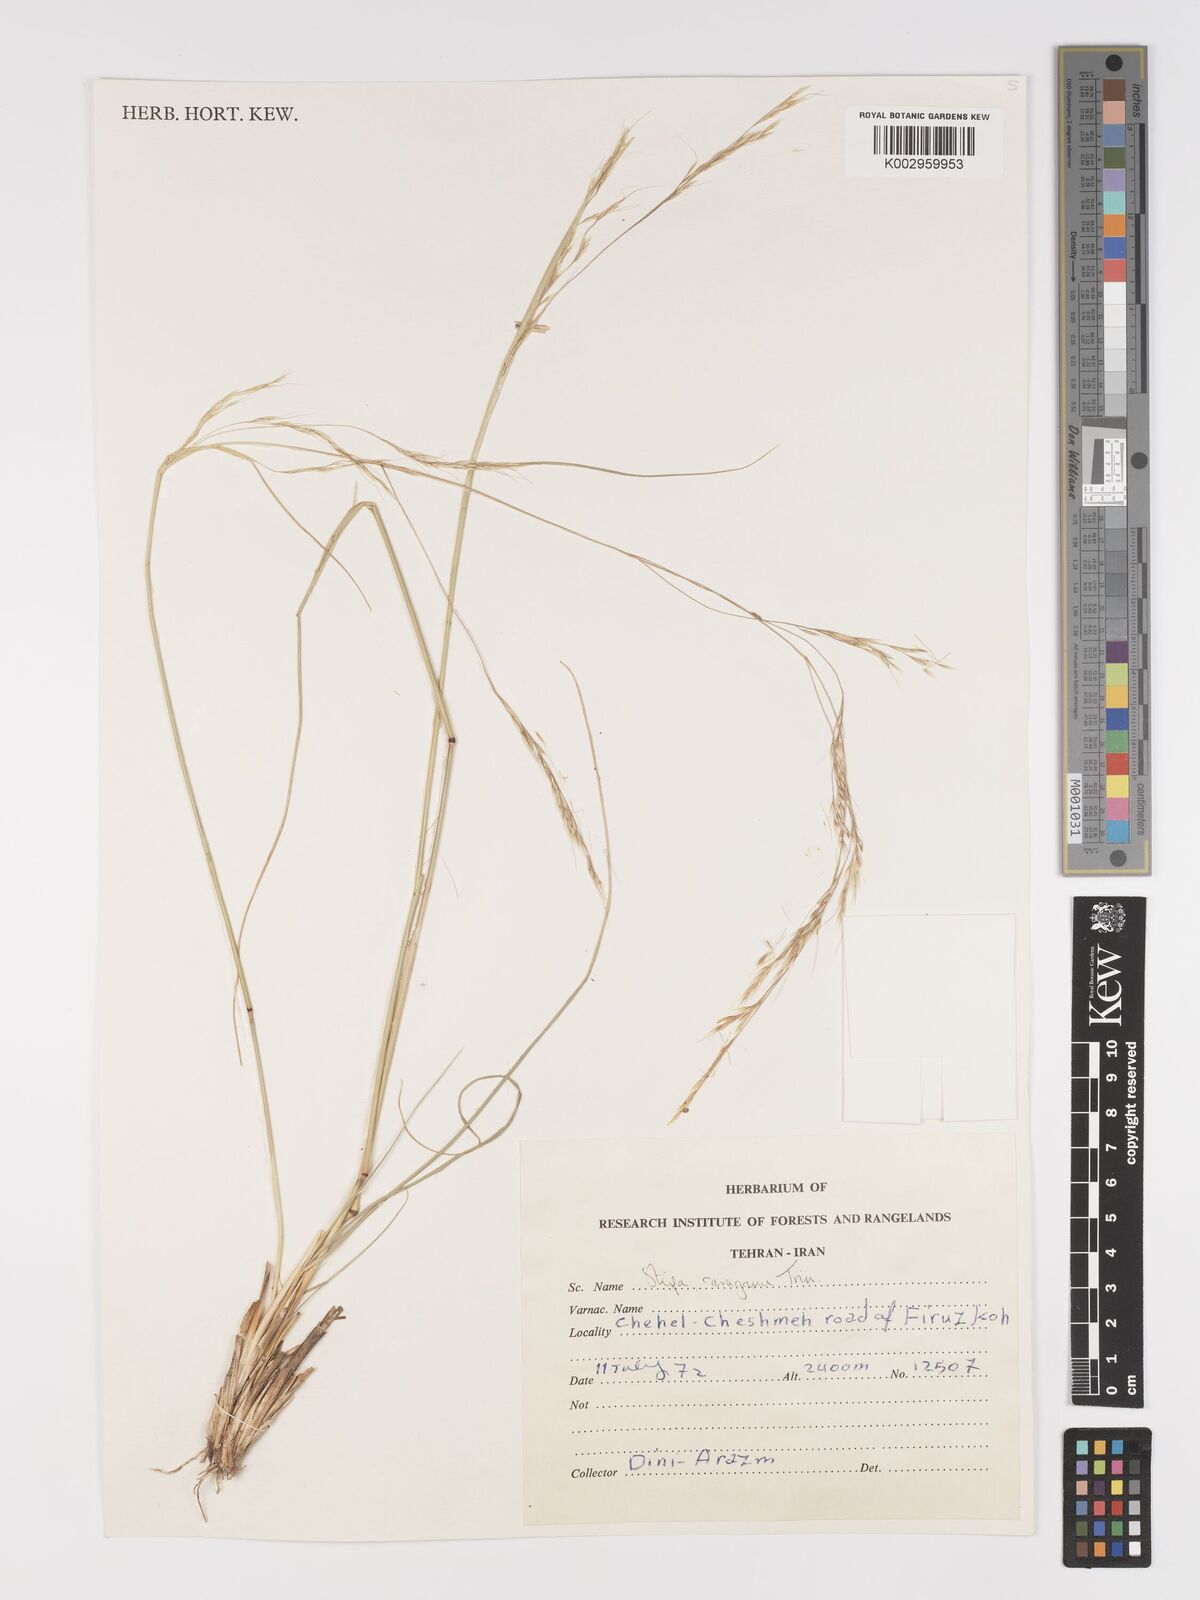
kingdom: Plantae
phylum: Tracheophyta
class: Liliopsida
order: Poales
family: Poaceae
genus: Stipa
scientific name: Stipa conferta
